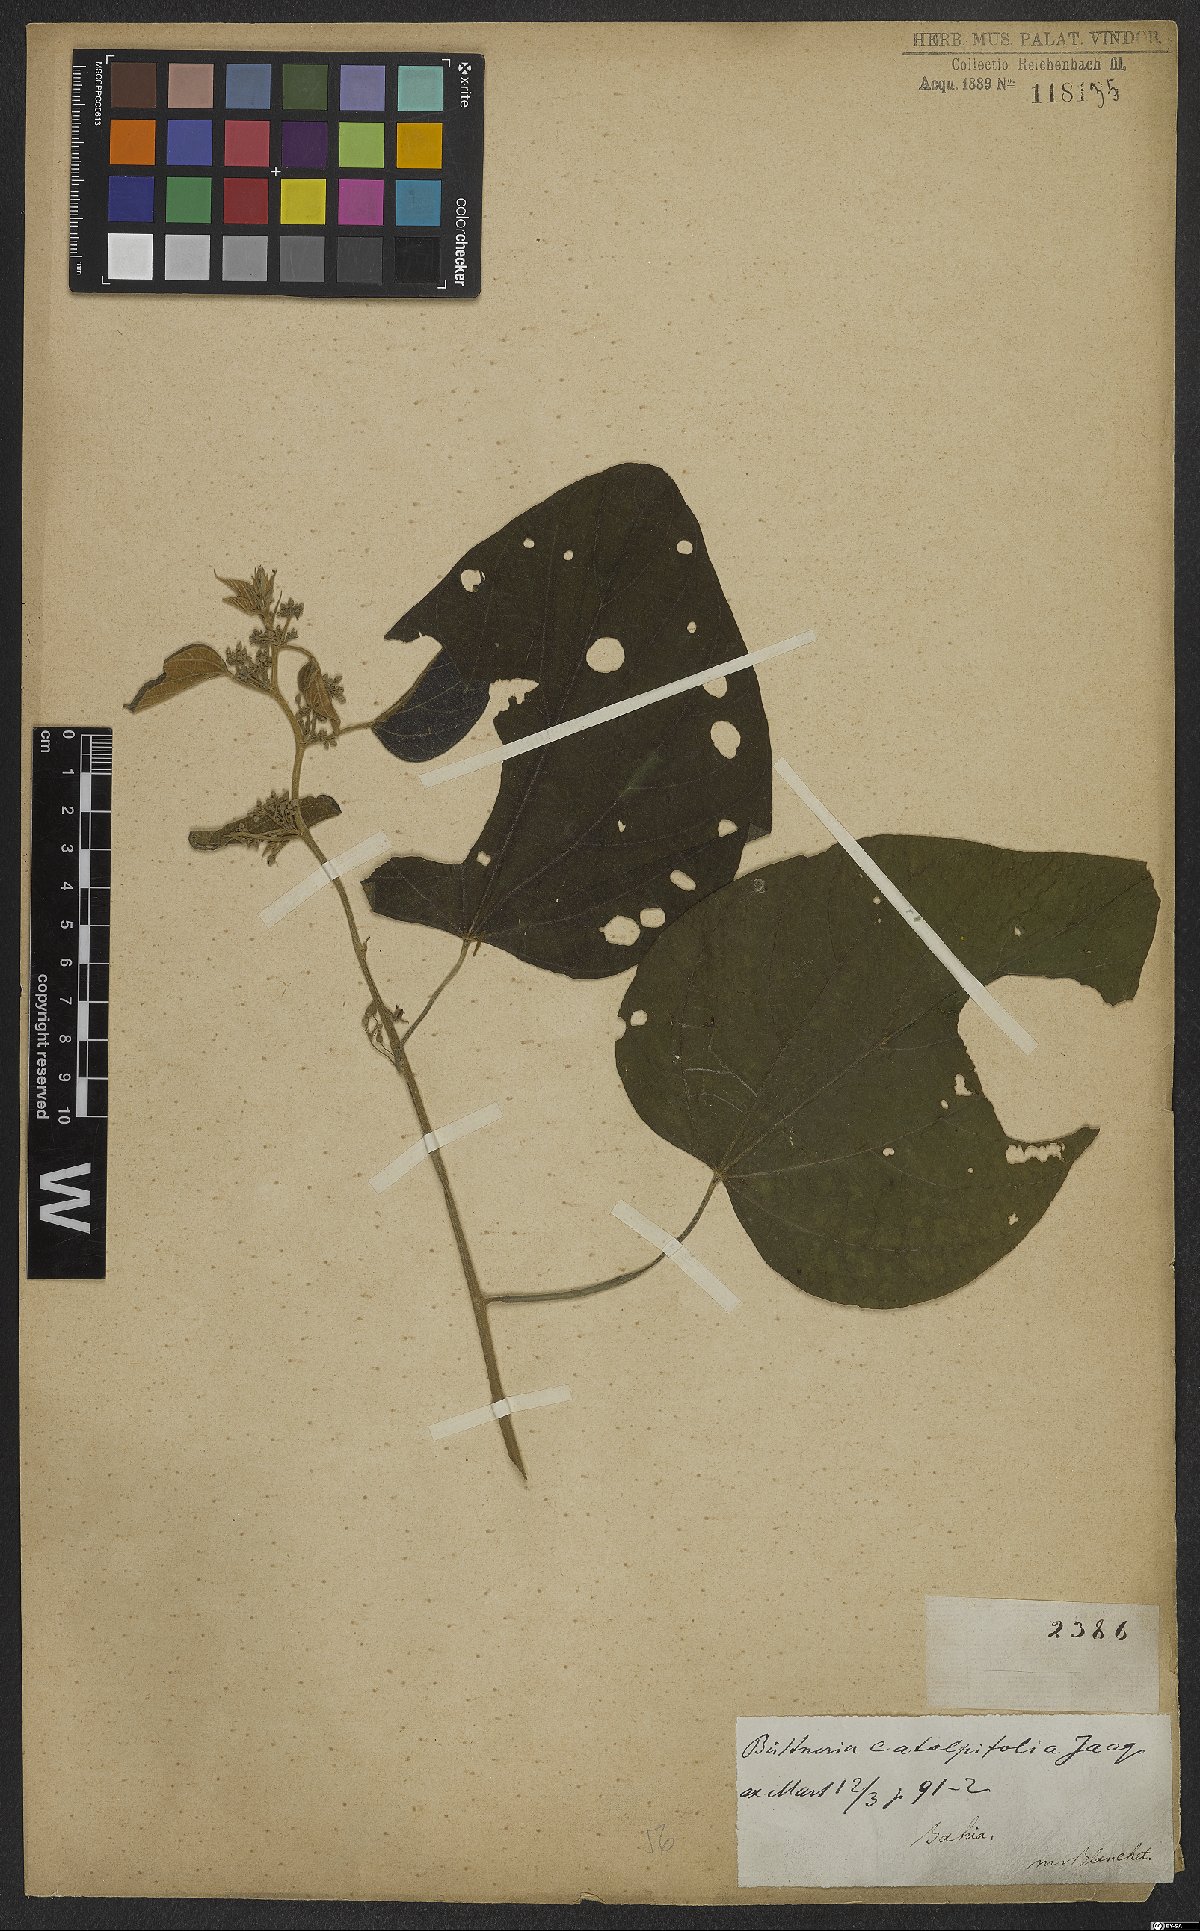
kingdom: Plantae
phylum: Tracheophyta
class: Magnoliopsida
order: Malvales
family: Malvaceae
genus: Byttneria
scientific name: Byttneria catalpifolia
